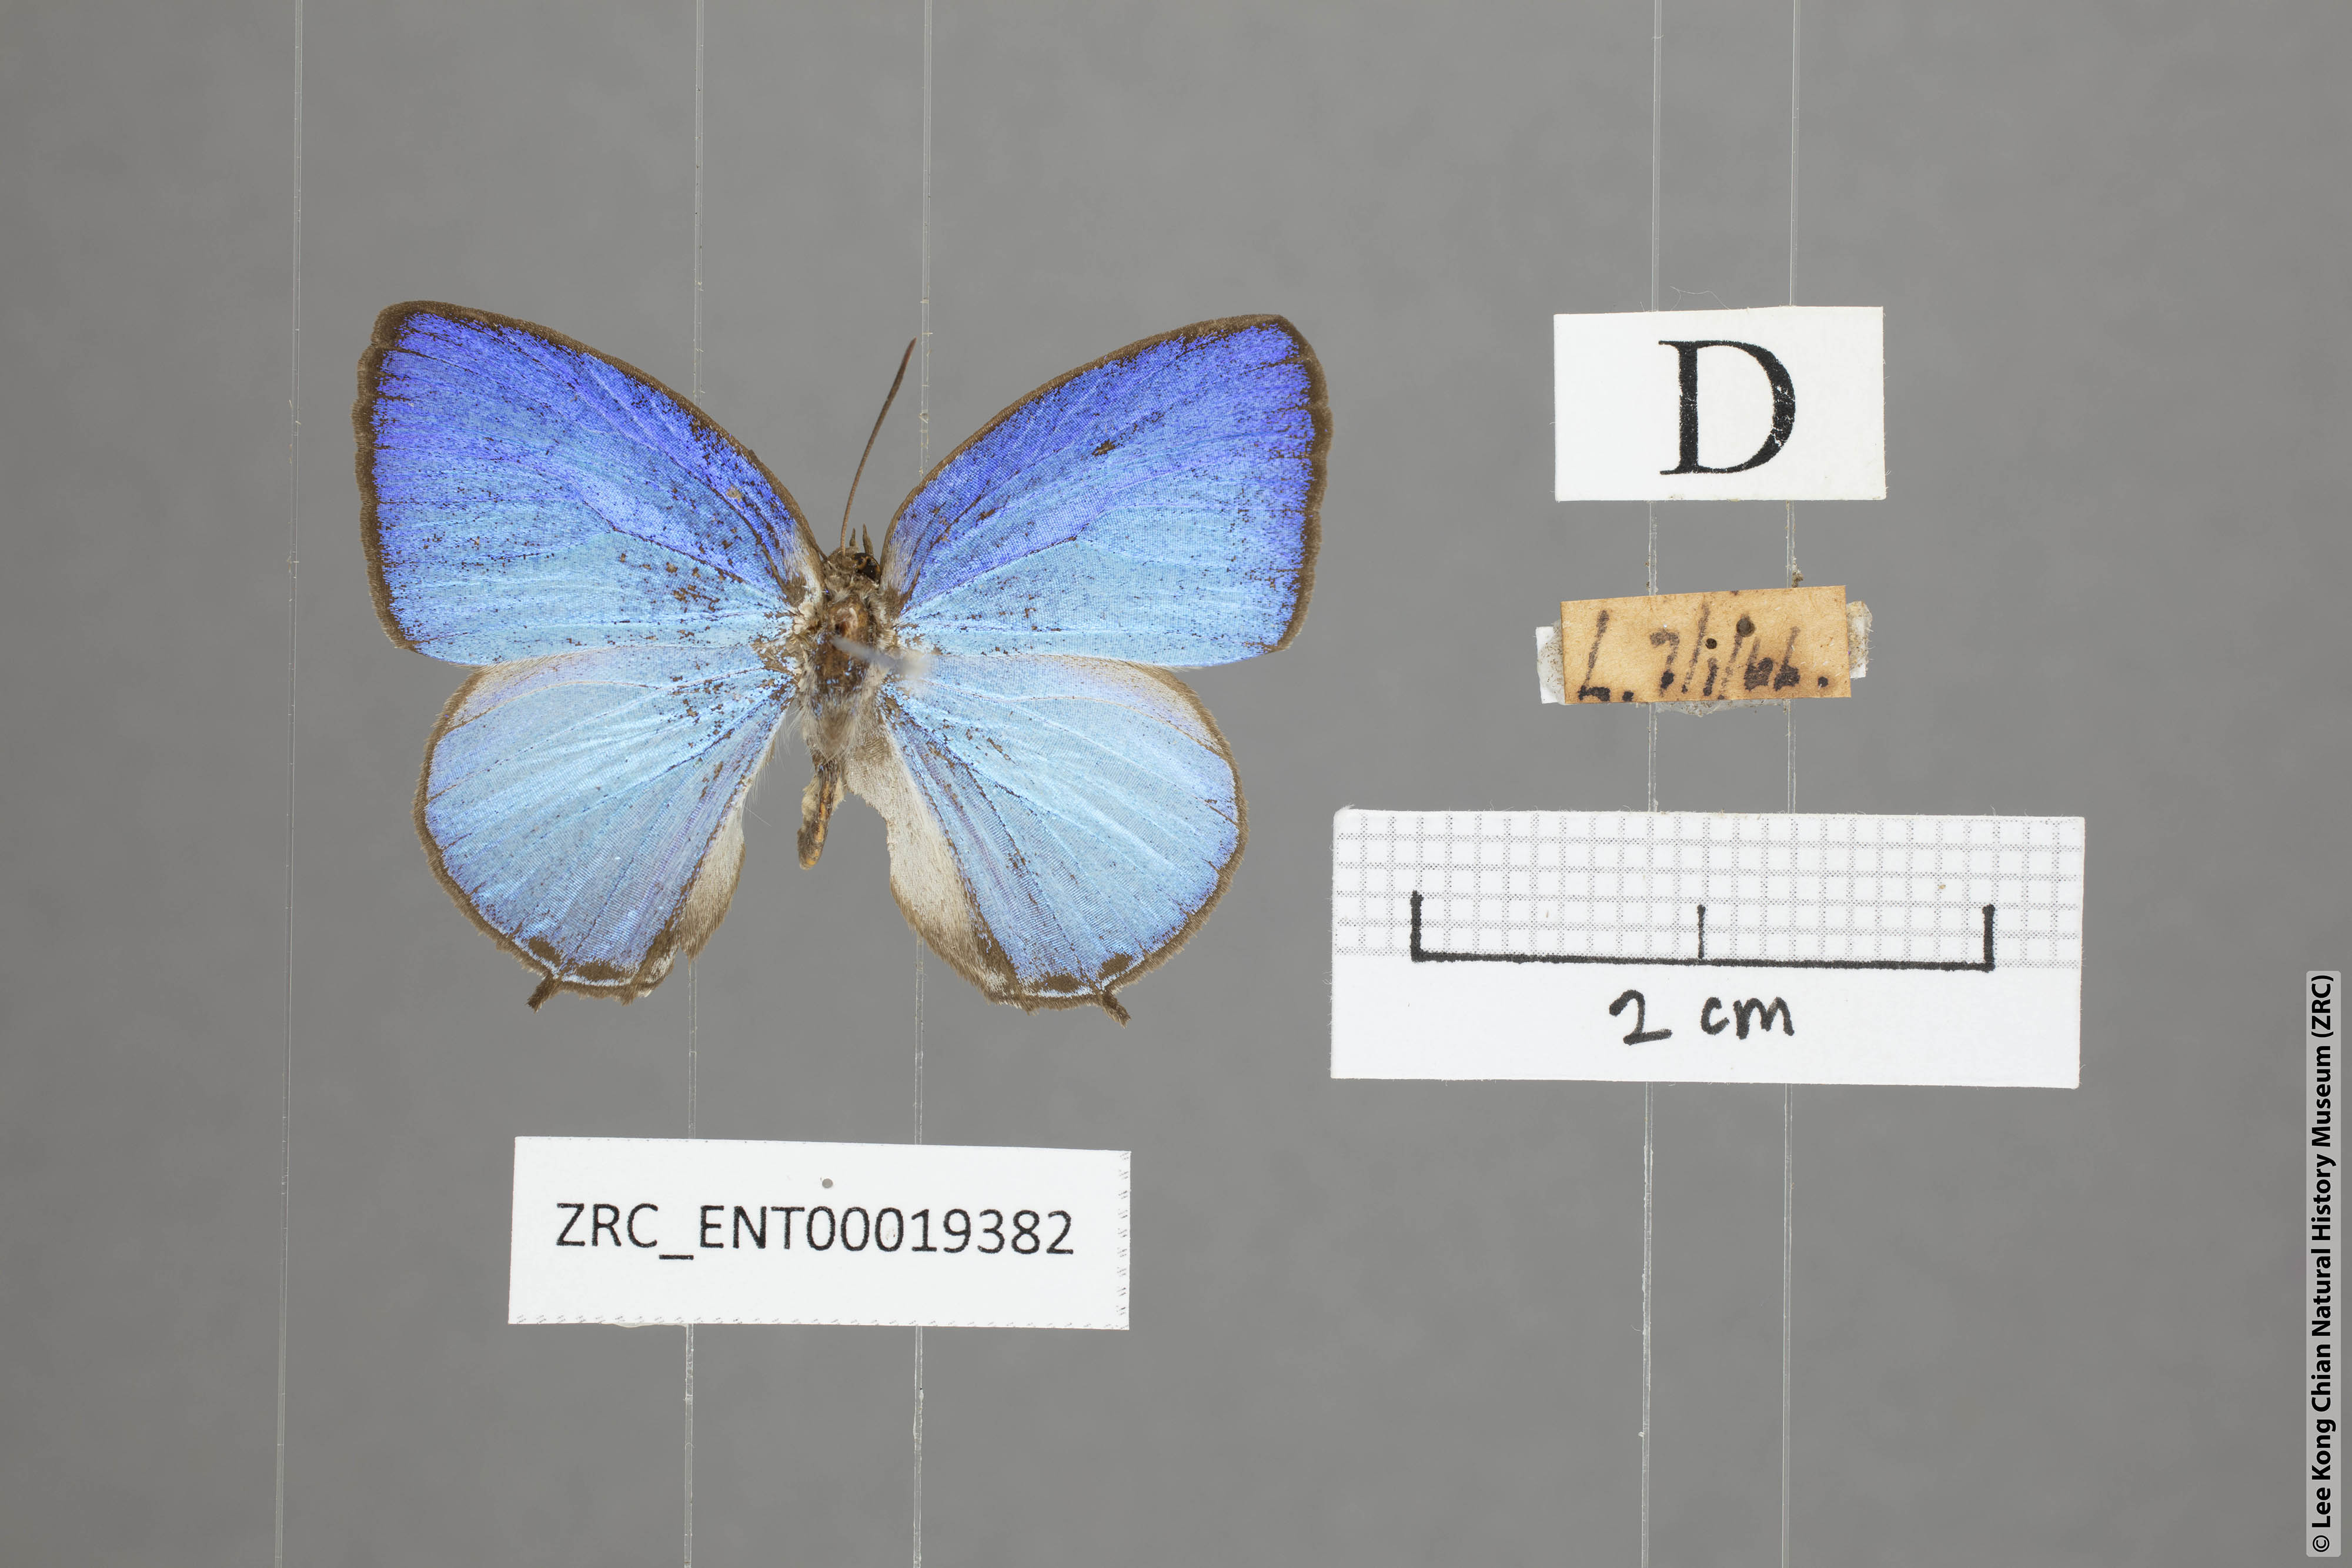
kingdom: Animalia
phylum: Arthropoda
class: Insecta
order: Lepidoptera
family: Lycaenidae
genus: Arhopala
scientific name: Arhopala democritus
